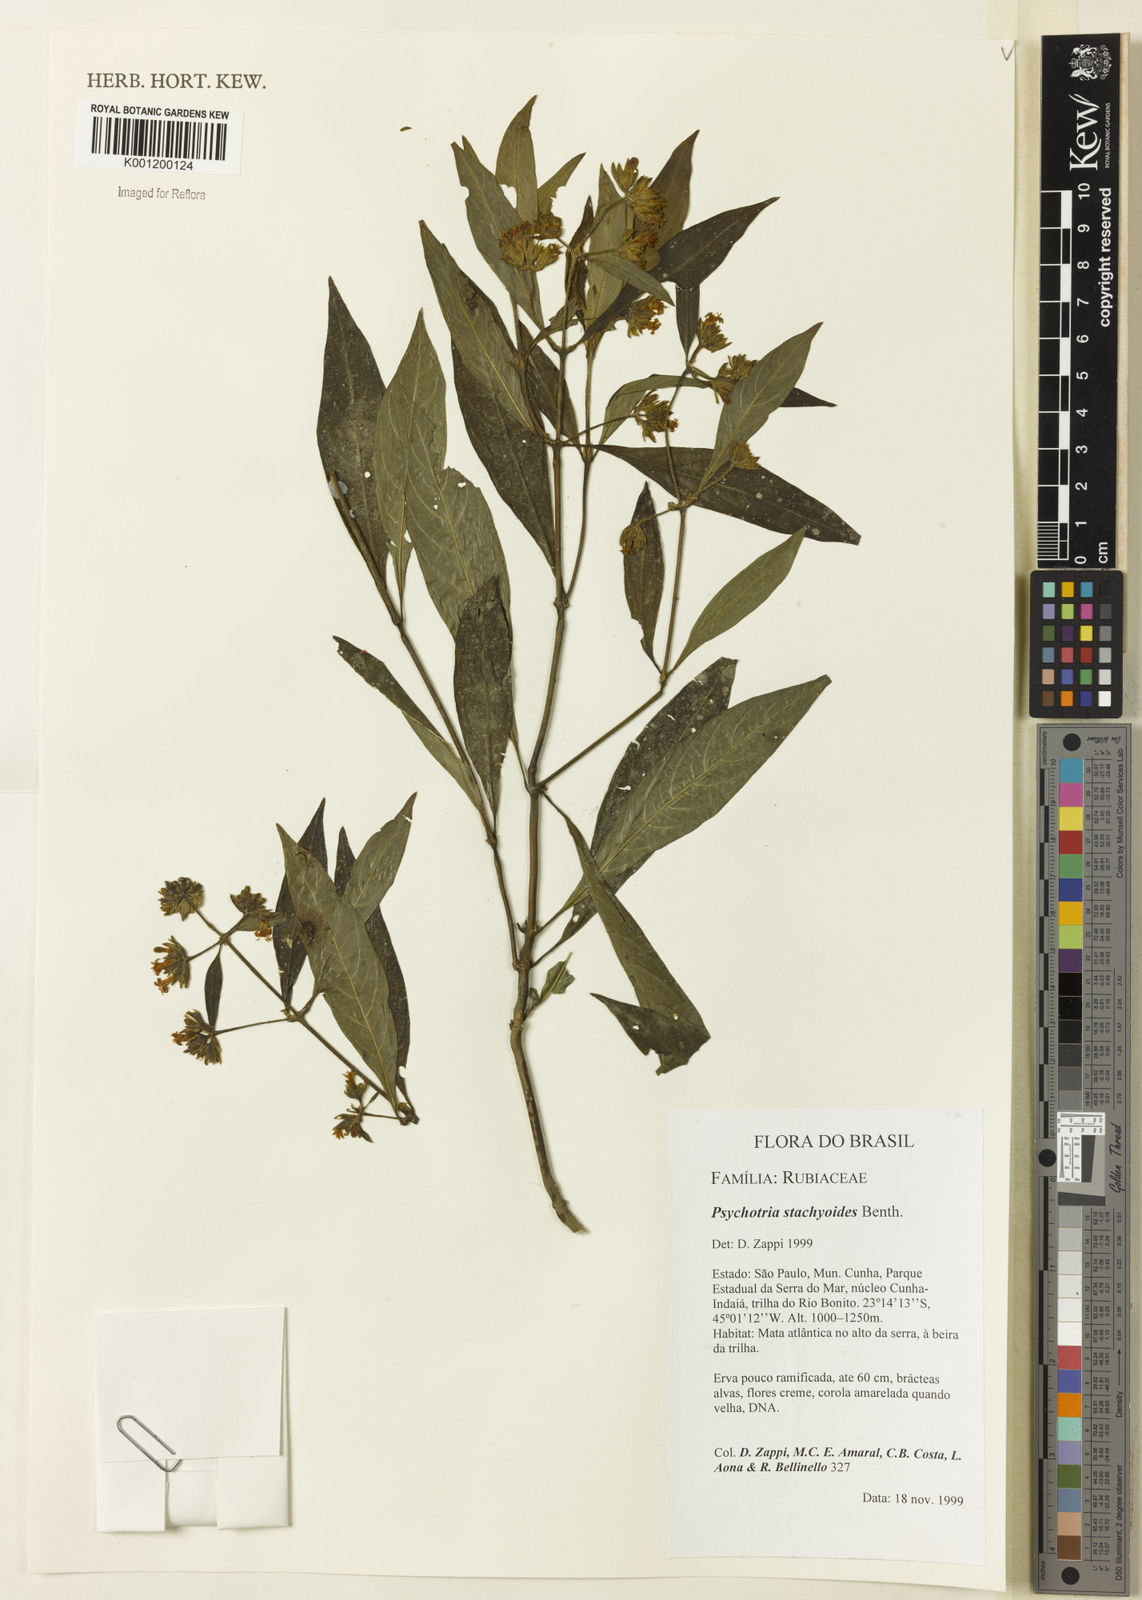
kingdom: Plantae
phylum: Tracheophyta
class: Magnoliopsida
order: Gentianales
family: Rubiaceae
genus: Psychotria
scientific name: Psychotria stachyoides
